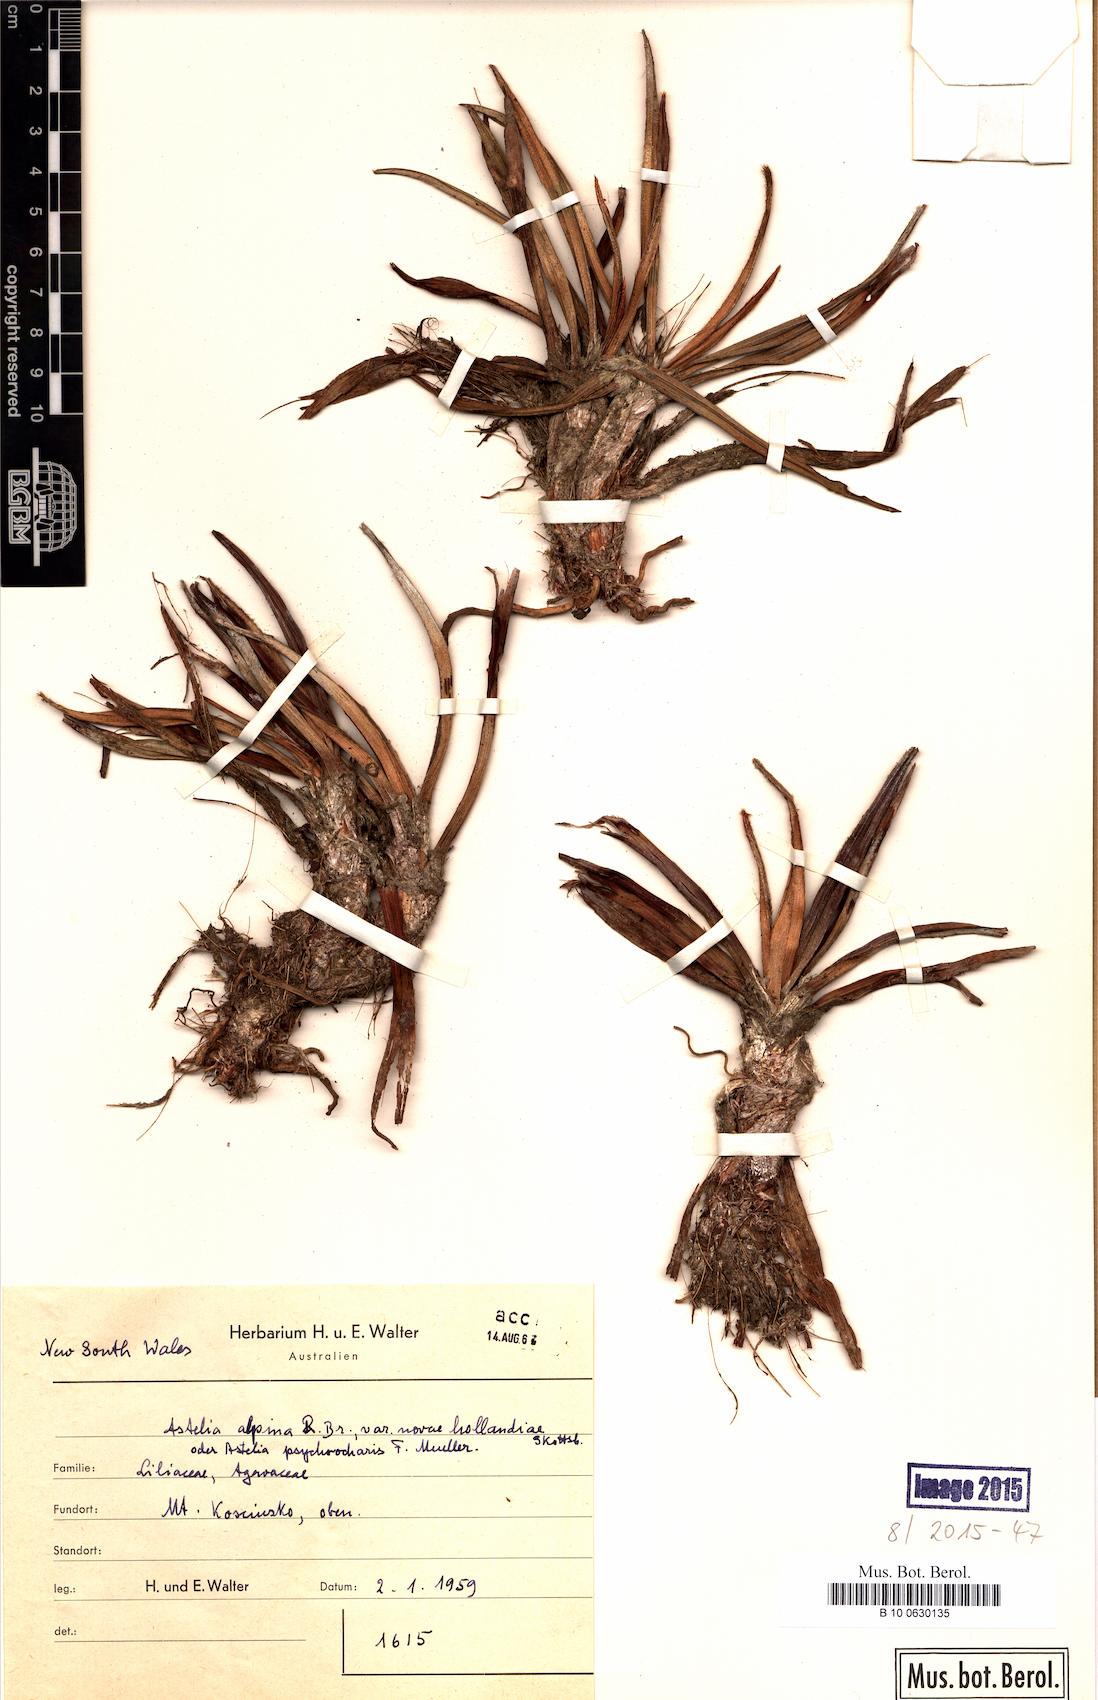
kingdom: Plantae
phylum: Tracheophyta
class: Liliopsida
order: Asparagales
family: Asteliaceae
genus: Astelia
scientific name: Astelia banksii
